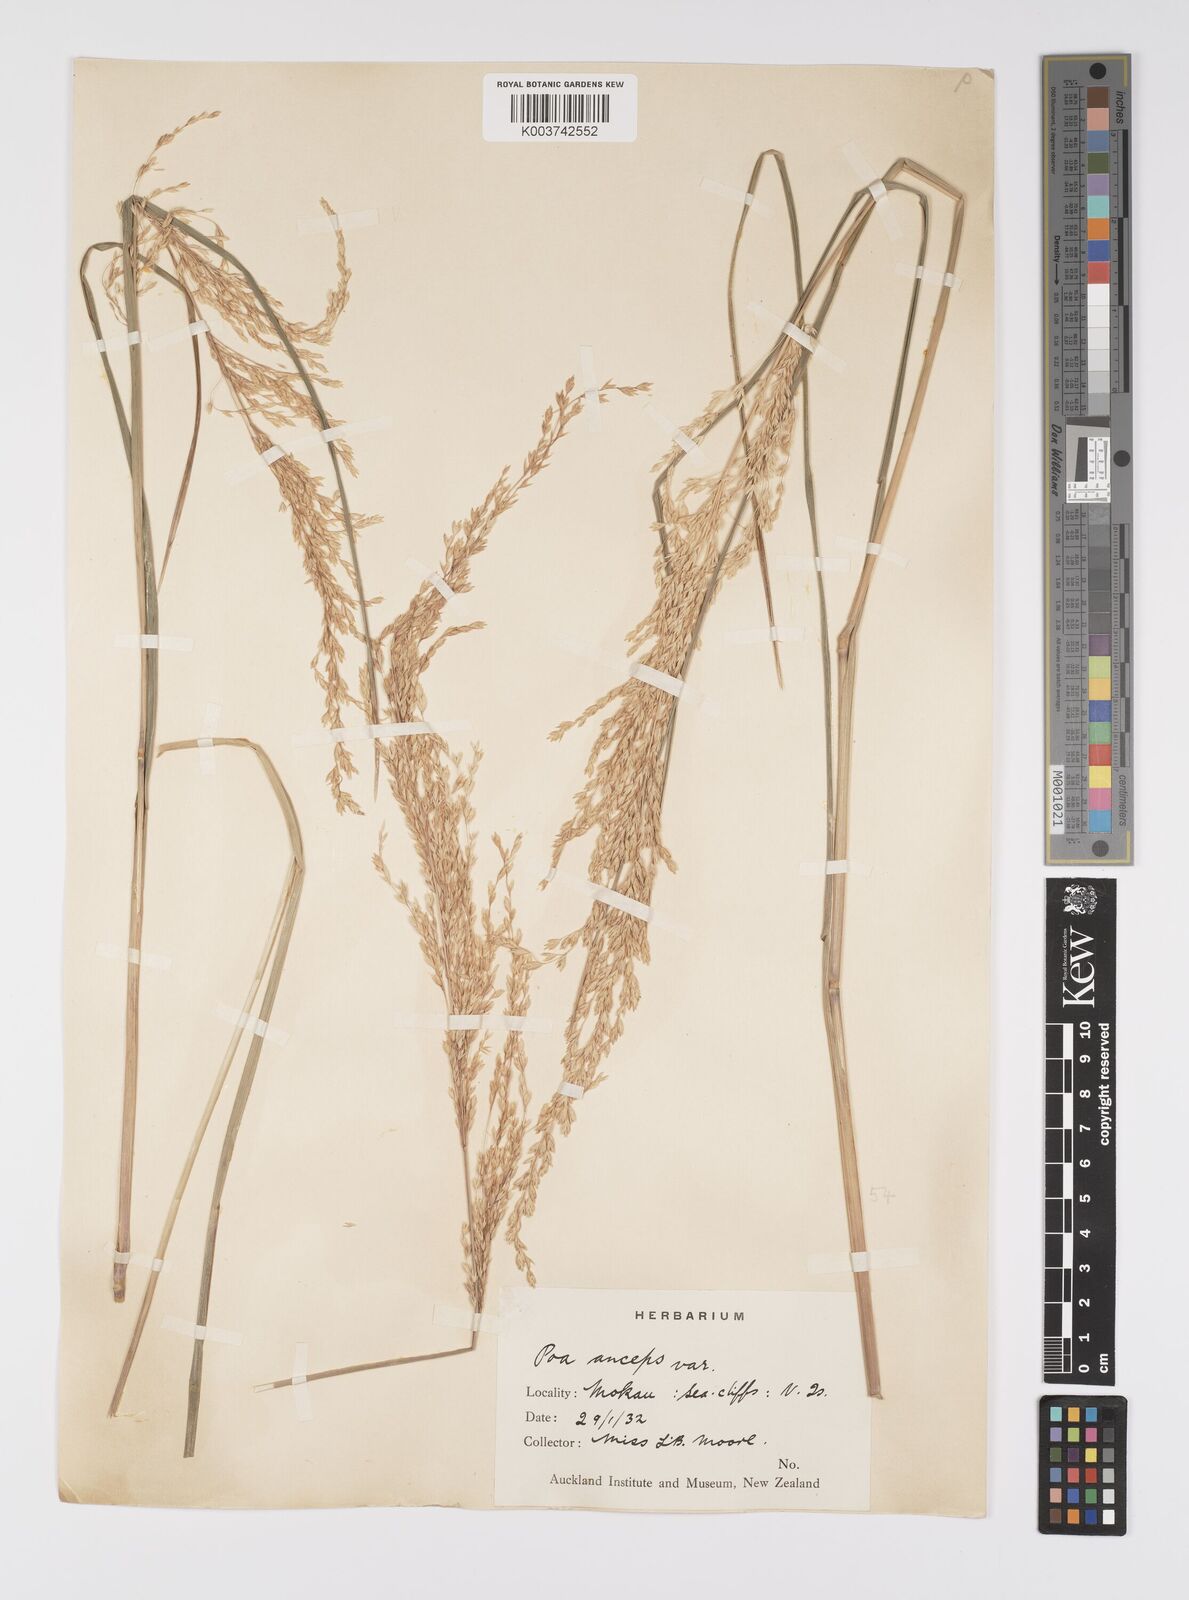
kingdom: Plantae
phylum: Tracheophyta
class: Liliopsida
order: Poales
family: Poaceae
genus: Poa
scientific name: Poa anceps
